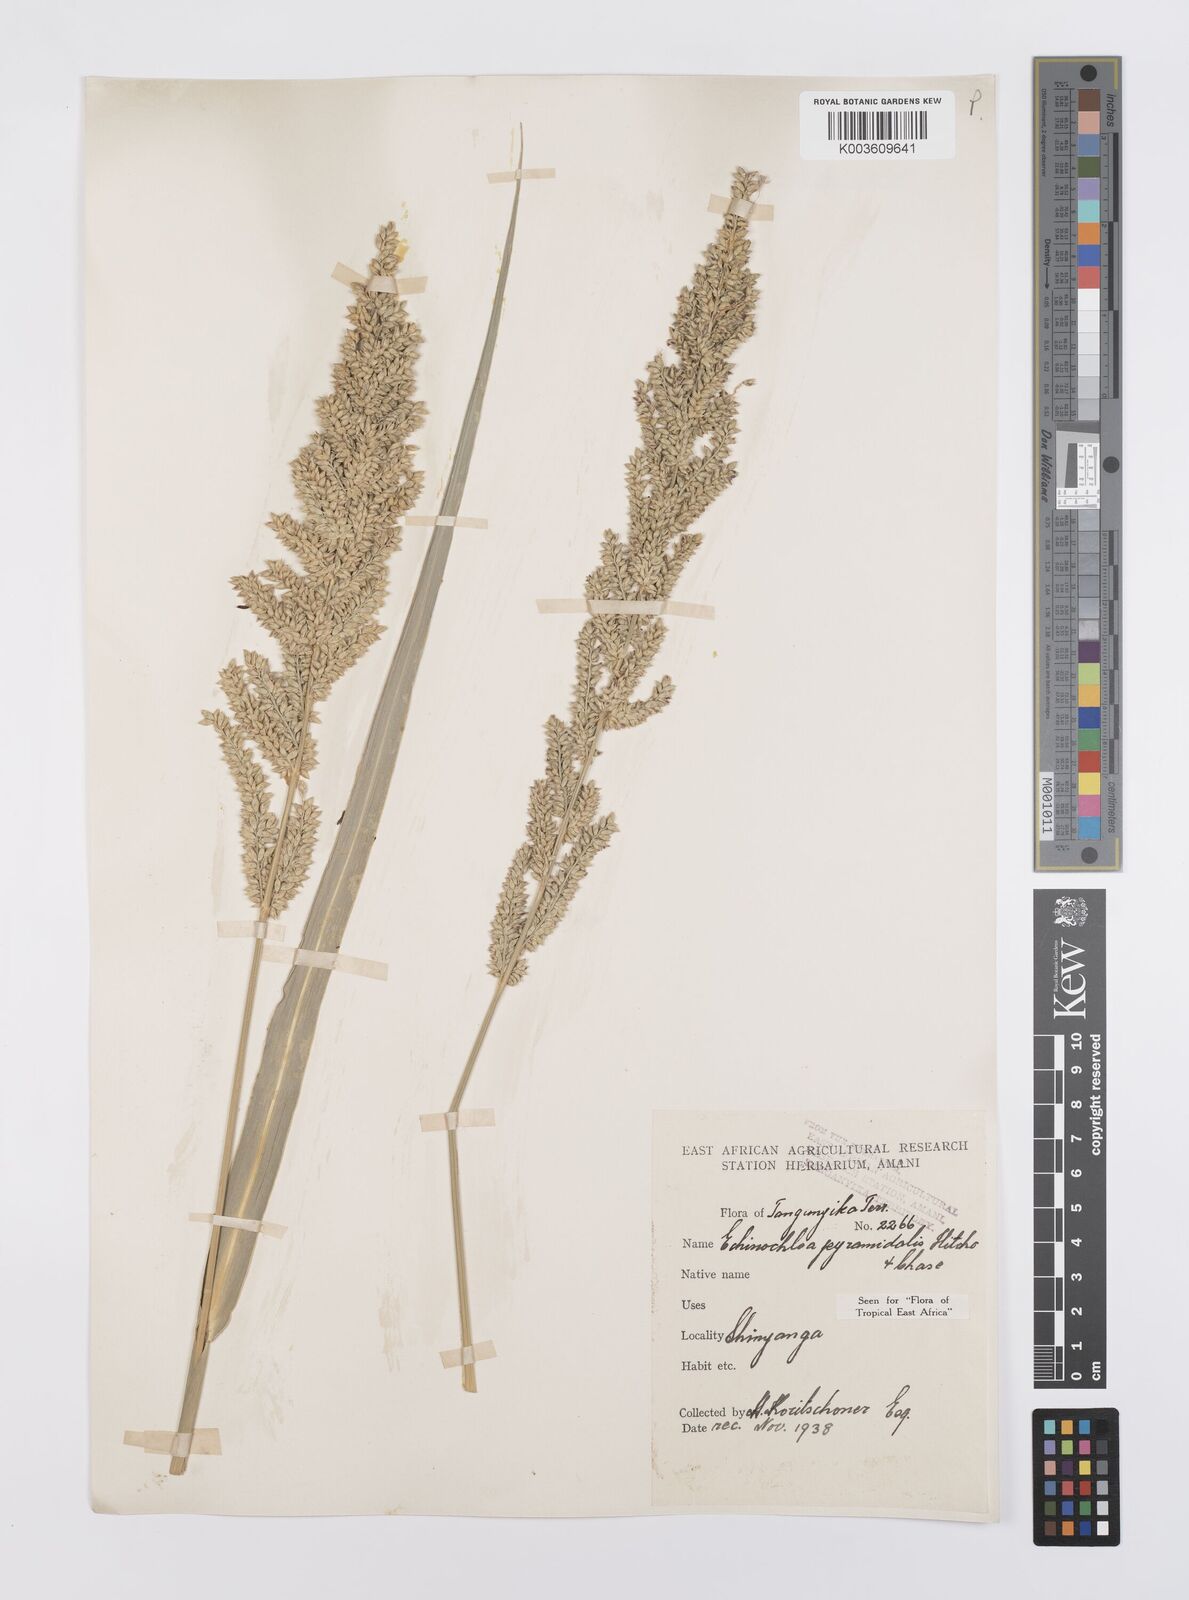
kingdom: Plantae
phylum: Tracheophyta
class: Liliopsida
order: Poales
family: Poaceae
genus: Echinochloa
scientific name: Echinochloa pyramidalis
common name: Antelope grass
